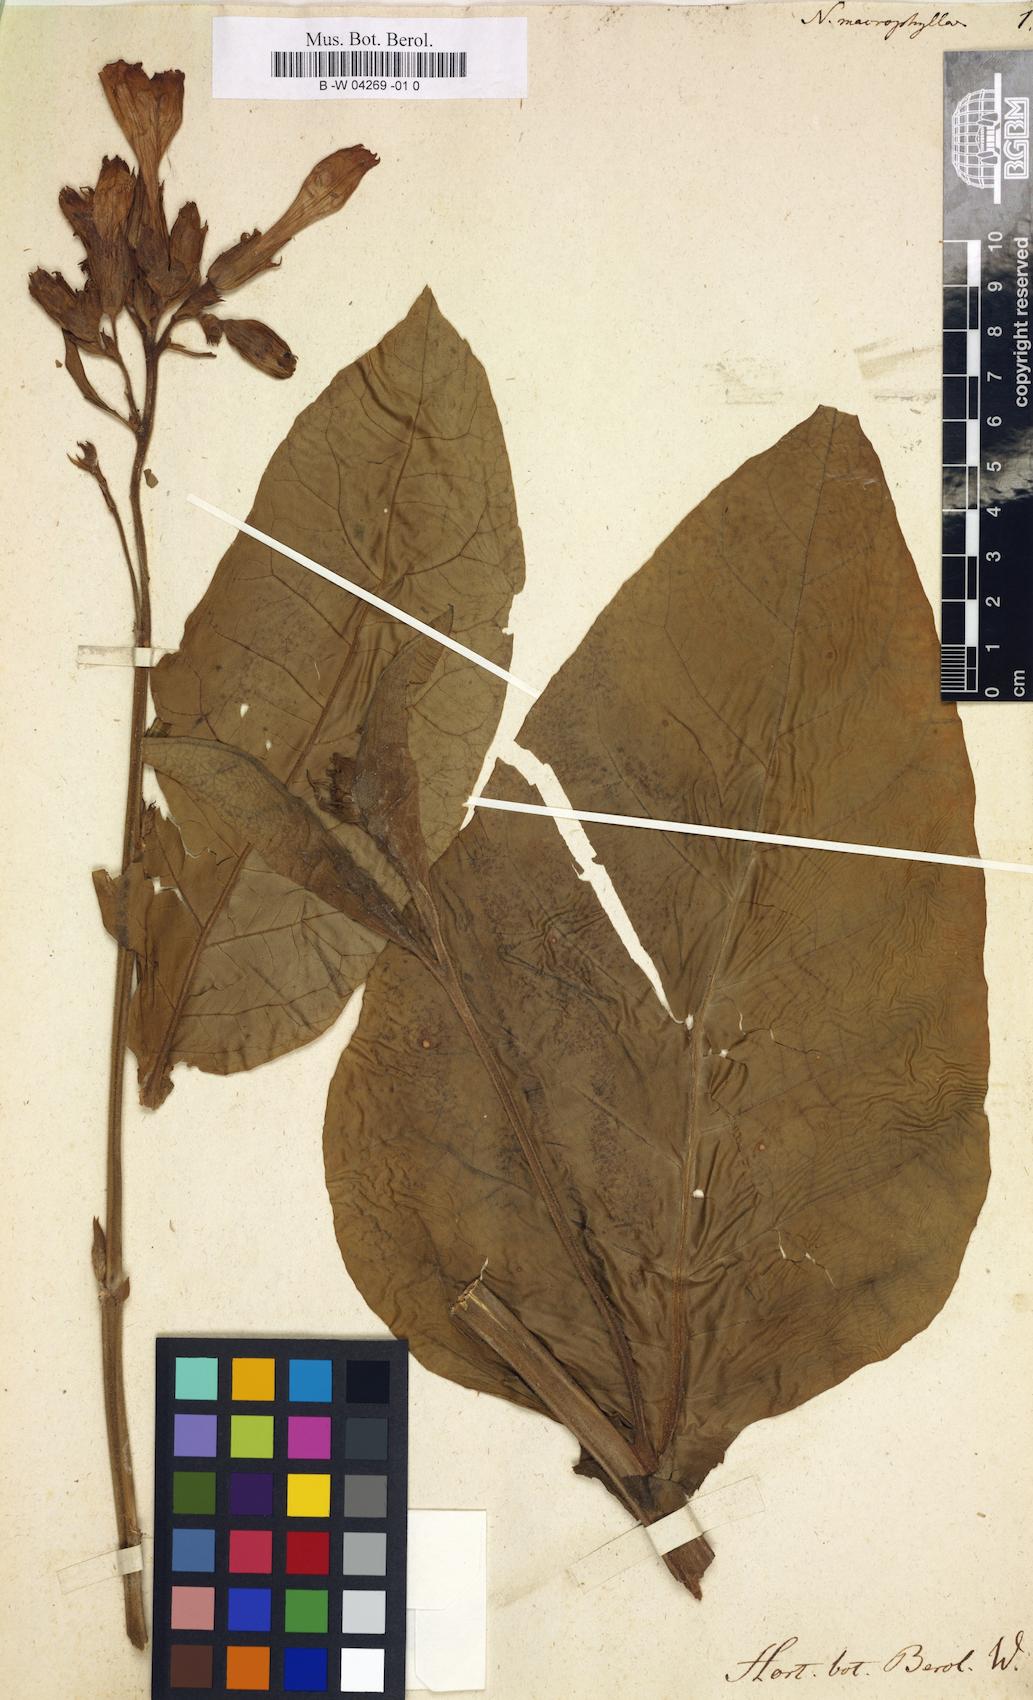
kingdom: Plantae
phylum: Tracheophyta
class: Magnoliopsida
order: Solanales
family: Solanaceae
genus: Nicotiana
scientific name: Nicotiana tabacum
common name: Tobacco
